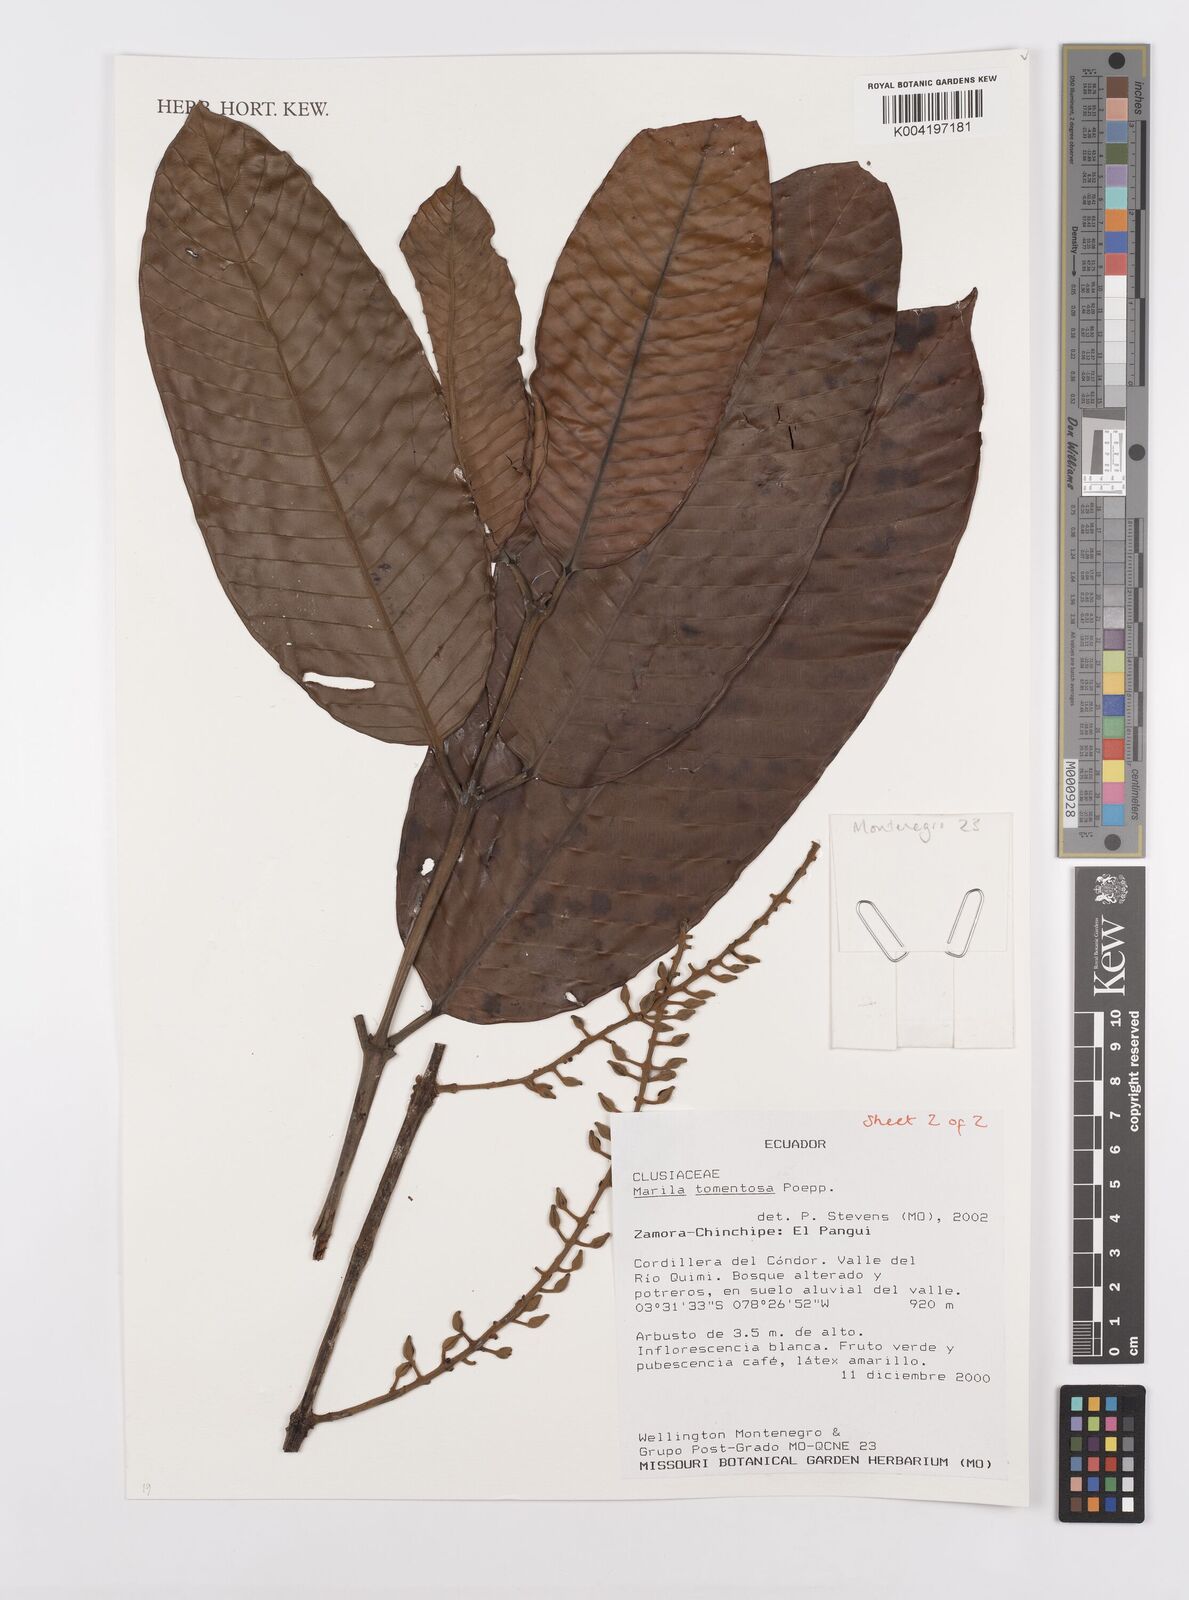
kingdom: Plantae
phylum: Tracheophyta
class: Magnoliopsida
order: Malpighiales
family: Calophyllaceae
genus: Marila
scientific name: Marila tomentosa
